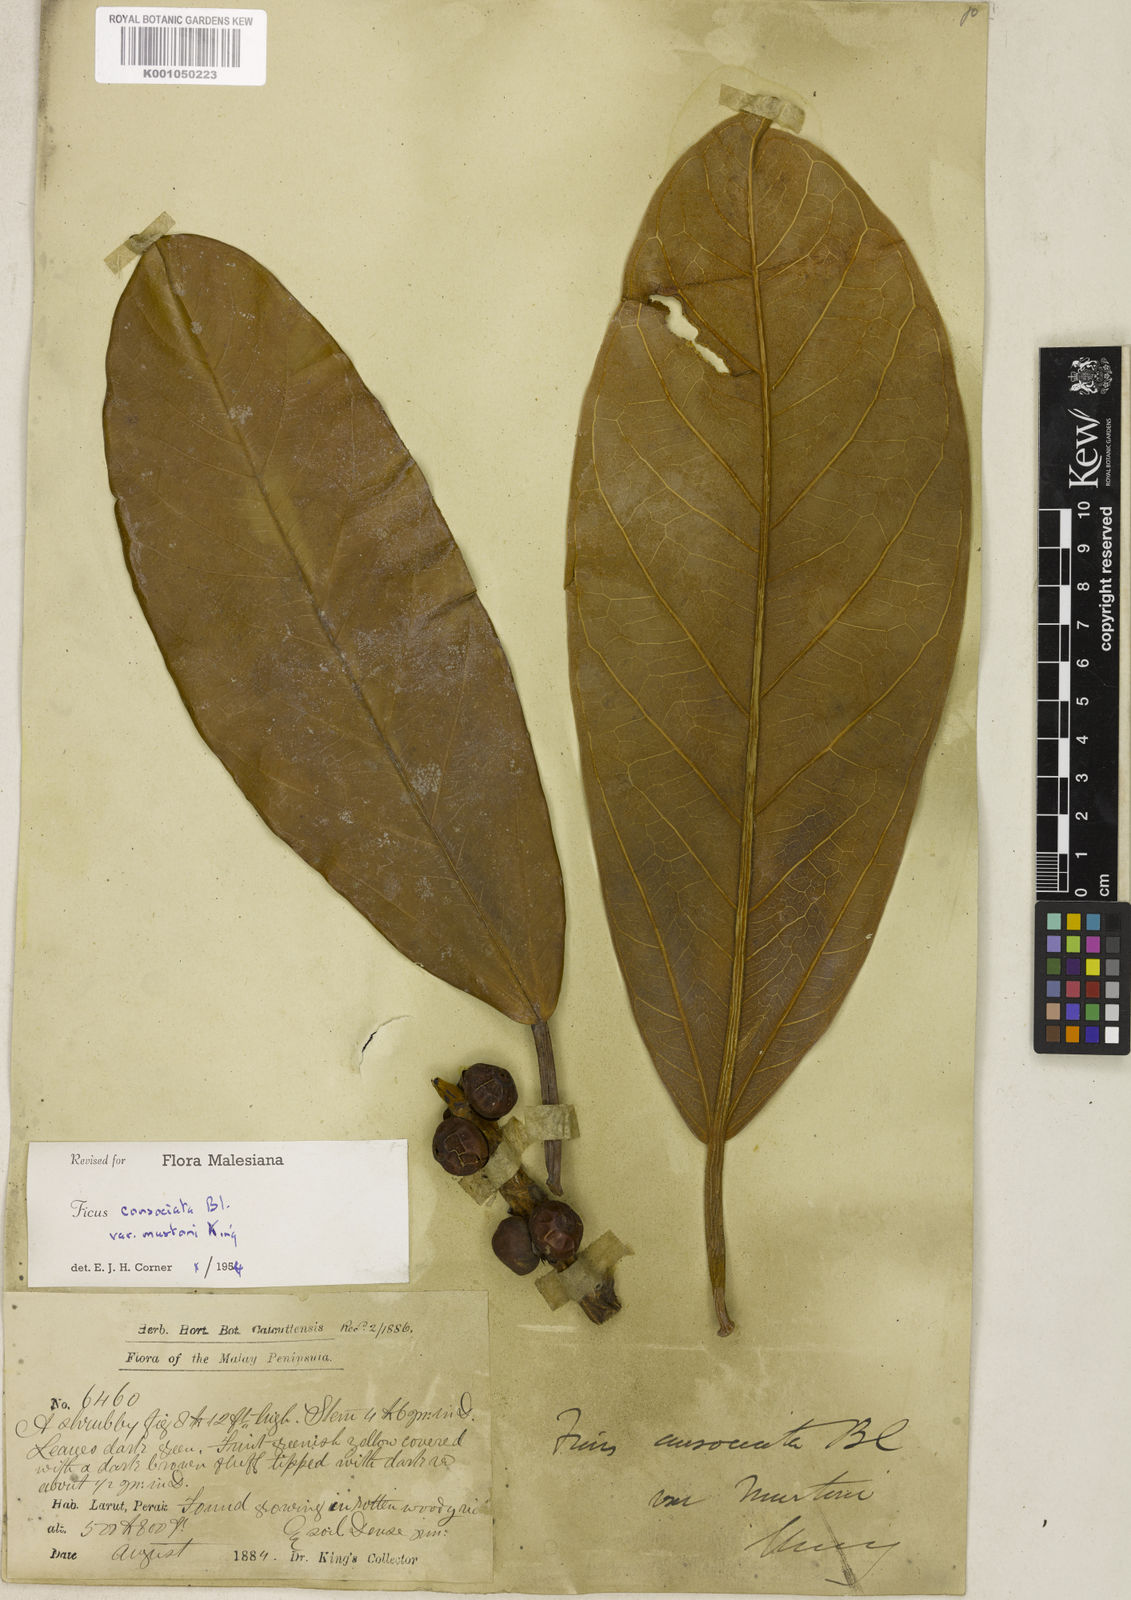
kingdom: Plantae
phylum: Tracheophyta
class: Magnoliopsida
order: Rosales
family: Moraceae
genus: Ficus
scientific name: Ficus consociata
